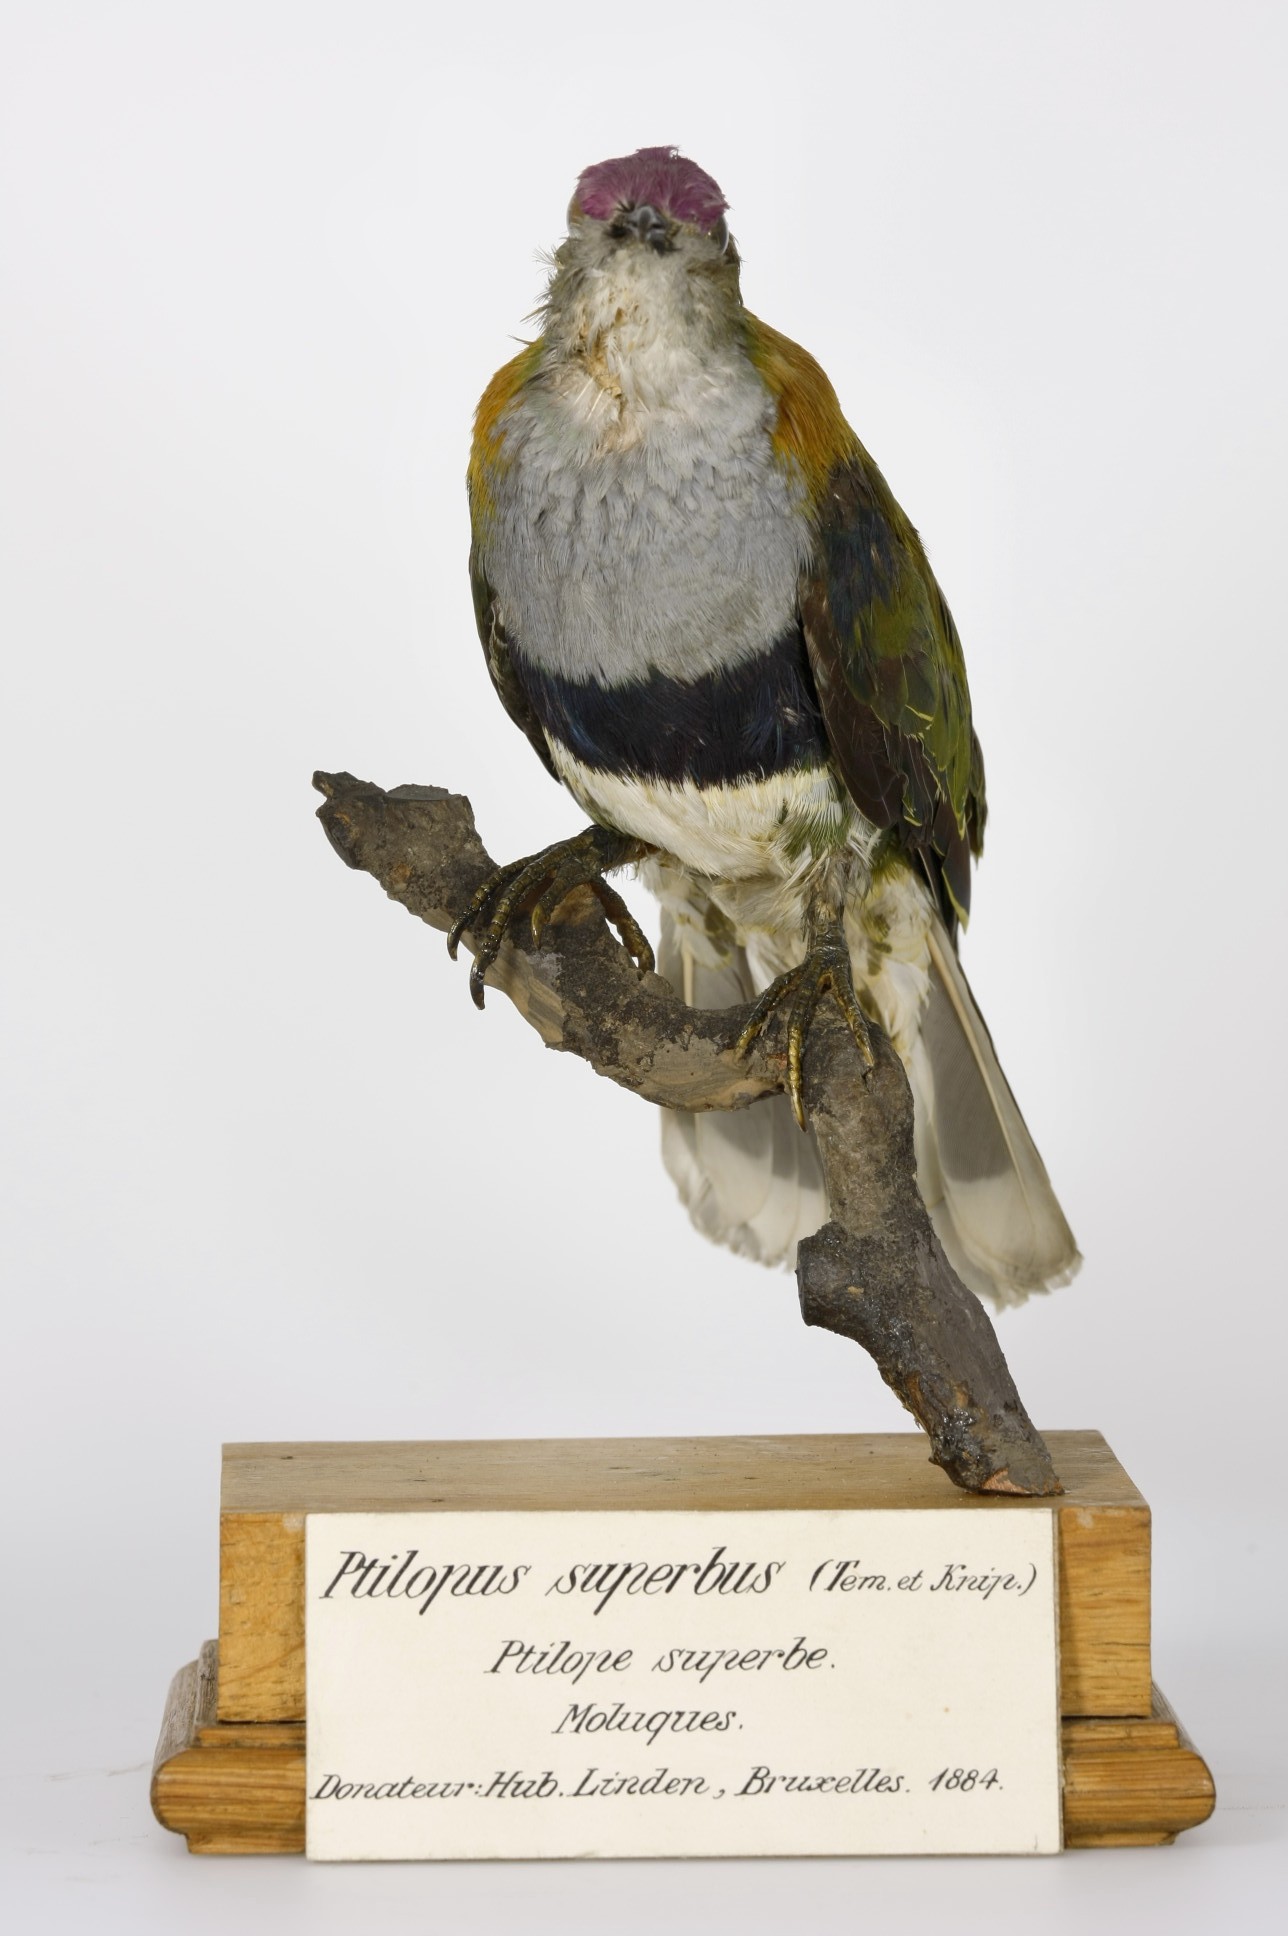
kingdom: Animalia
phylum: Chordata
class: Aves
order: Columbiformes
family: Columbidae
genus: Ptilinopus
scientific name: Ptilinopus superbus
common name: Superb fruit dove
